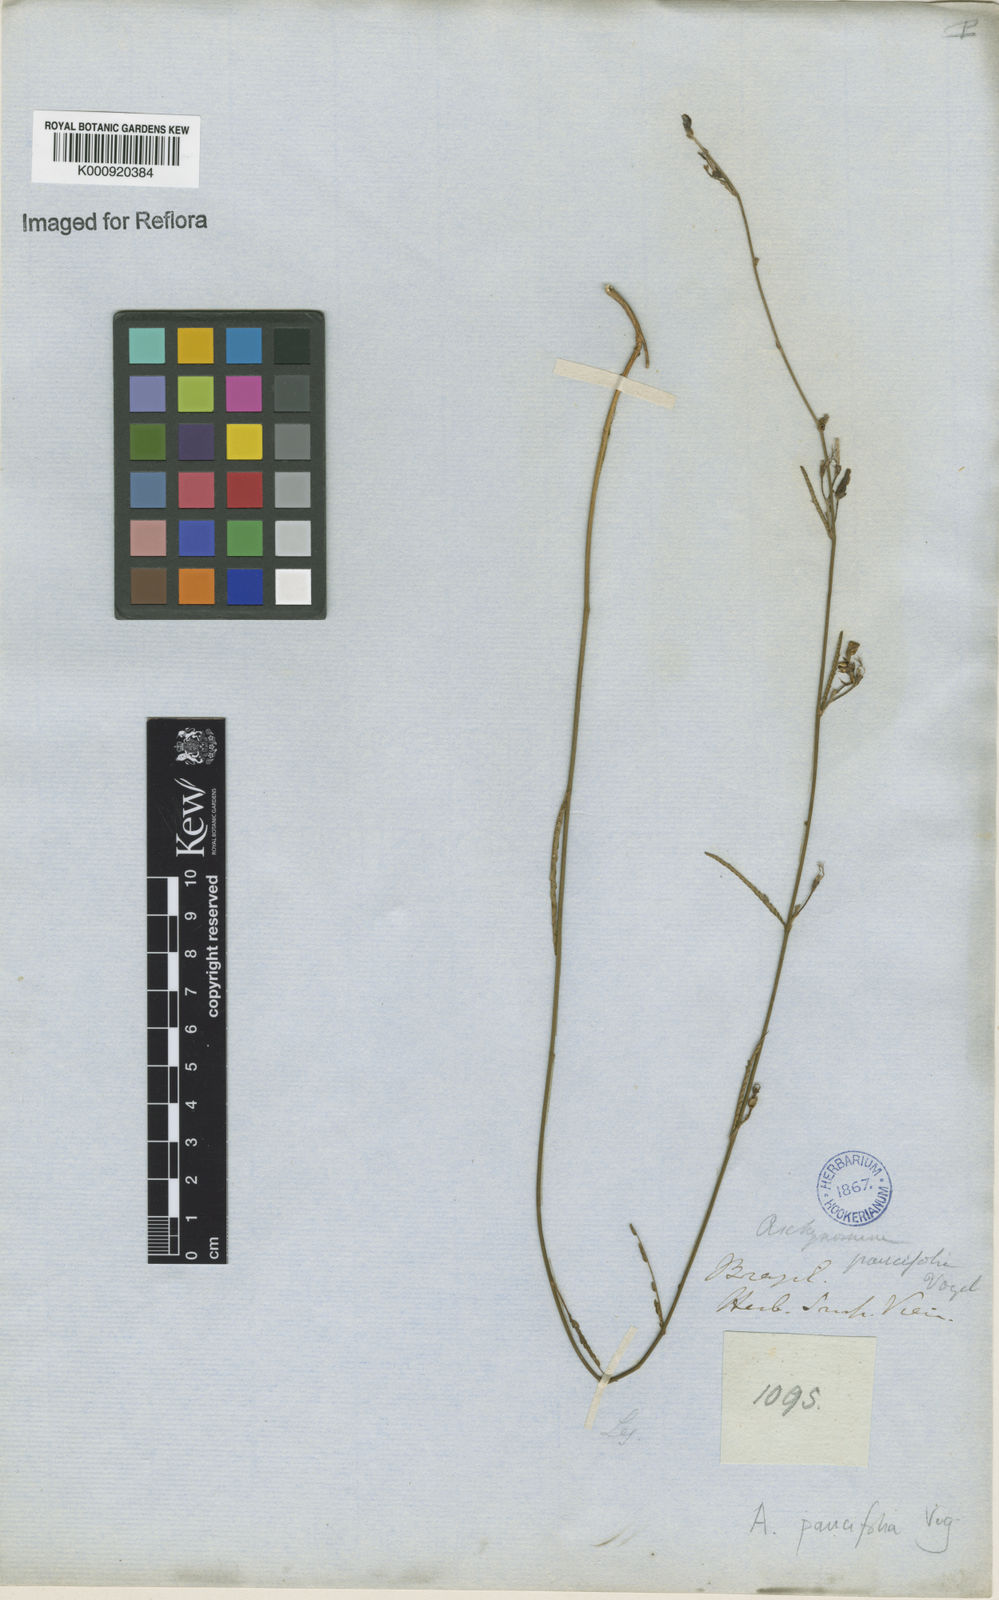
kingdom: Plantae
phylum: Tracheophyta
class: Magnoliopsida
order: Fabales
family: Fabaceae
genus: Ctenodon
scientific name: Ctenodon paucifolius
